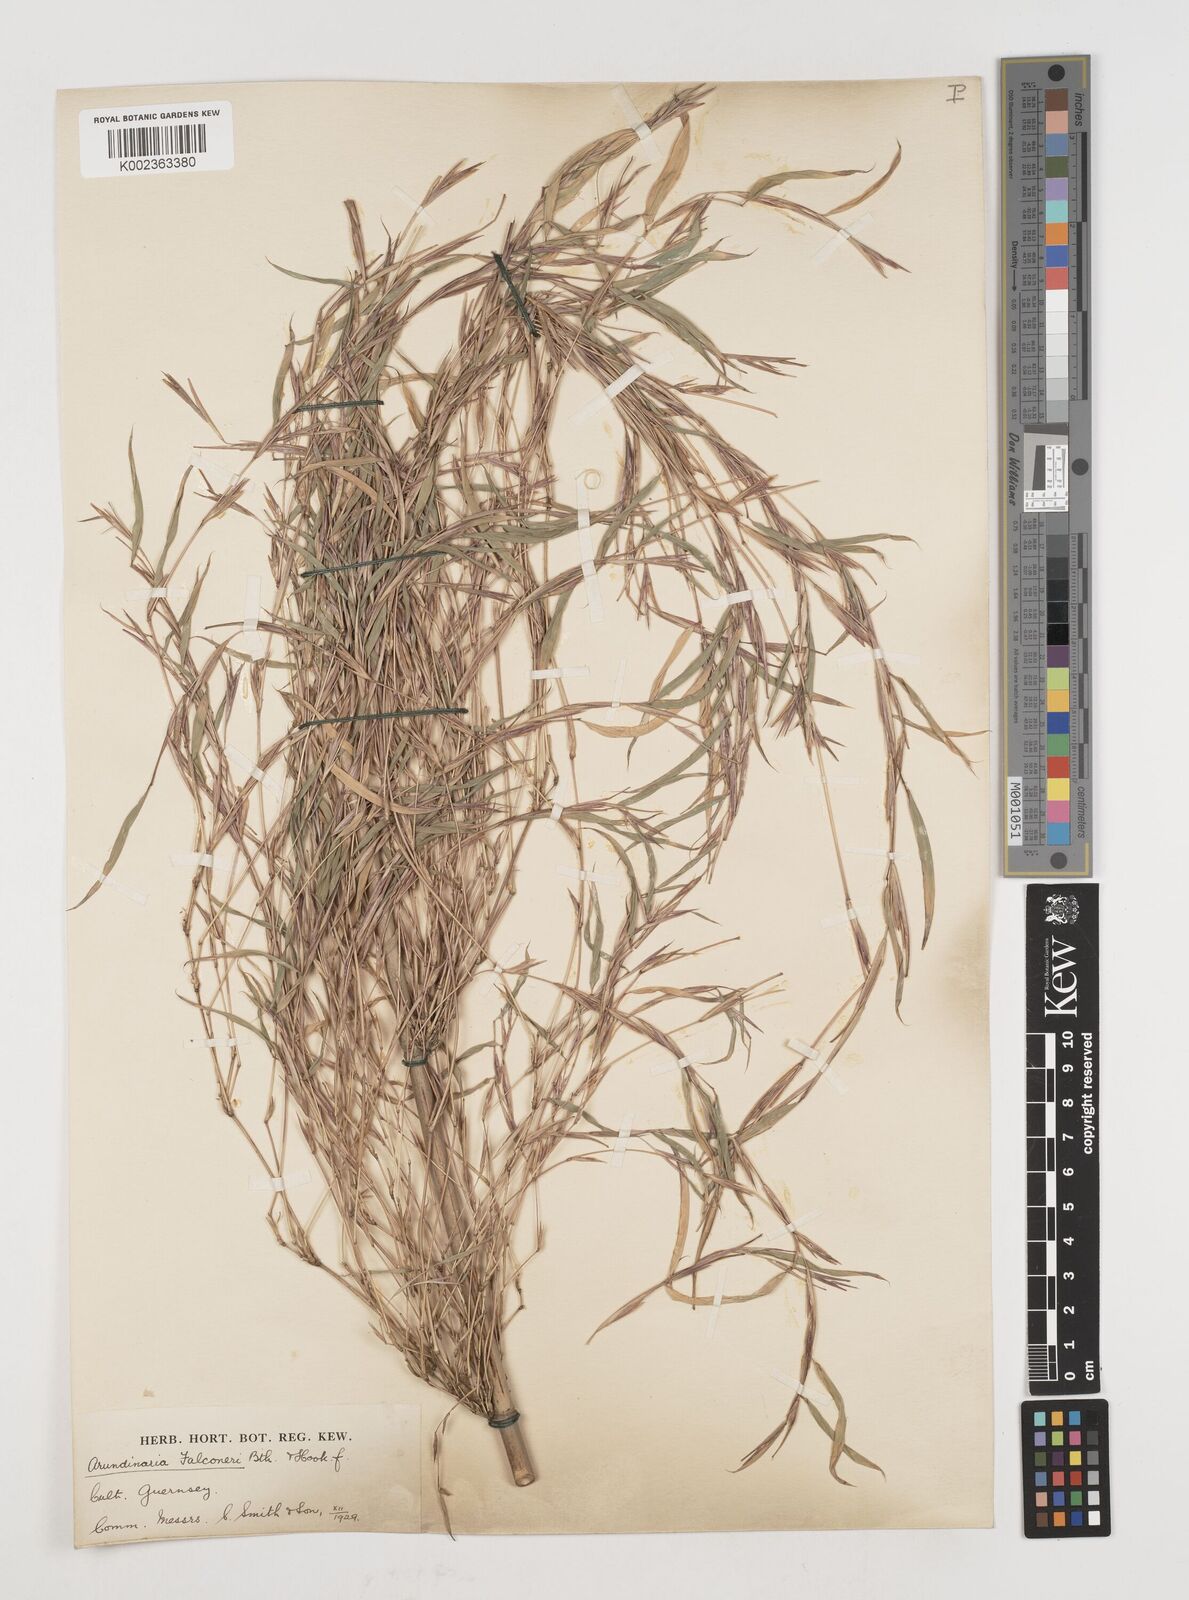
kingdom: Plantae
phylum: Tracheophyta
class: Liliopsida
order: Poales
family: Poaceae
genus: Himalayacalamus
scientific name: Himalayacalamus falconeri
